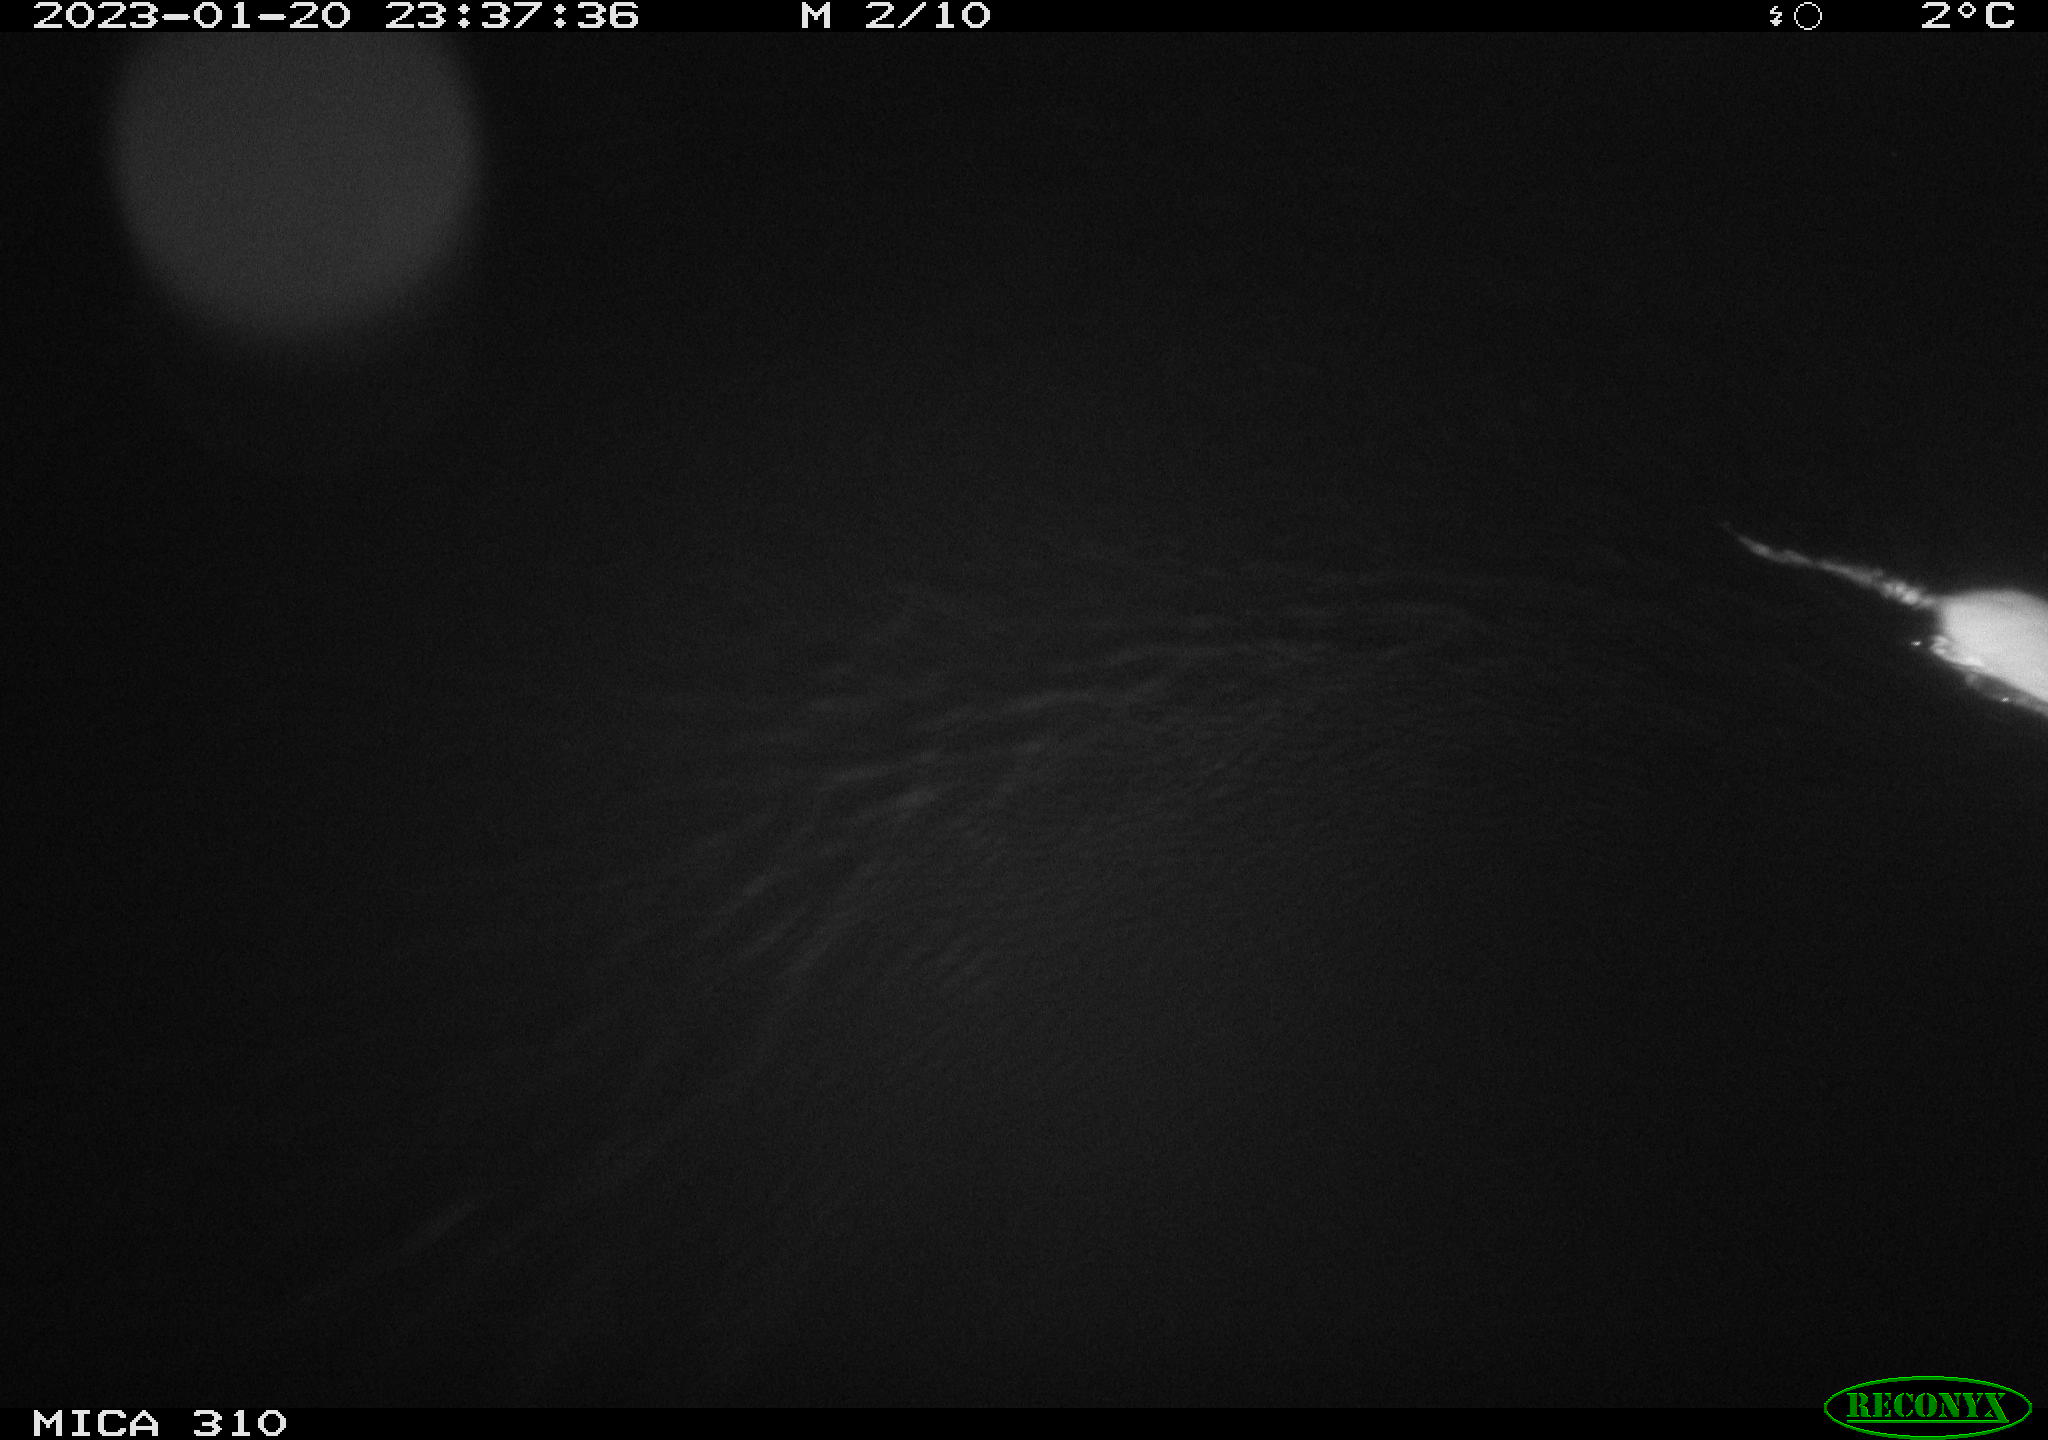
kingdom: Animalia
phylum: Chordata
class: Mammalia
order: Rodentia
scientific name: Rodentia
